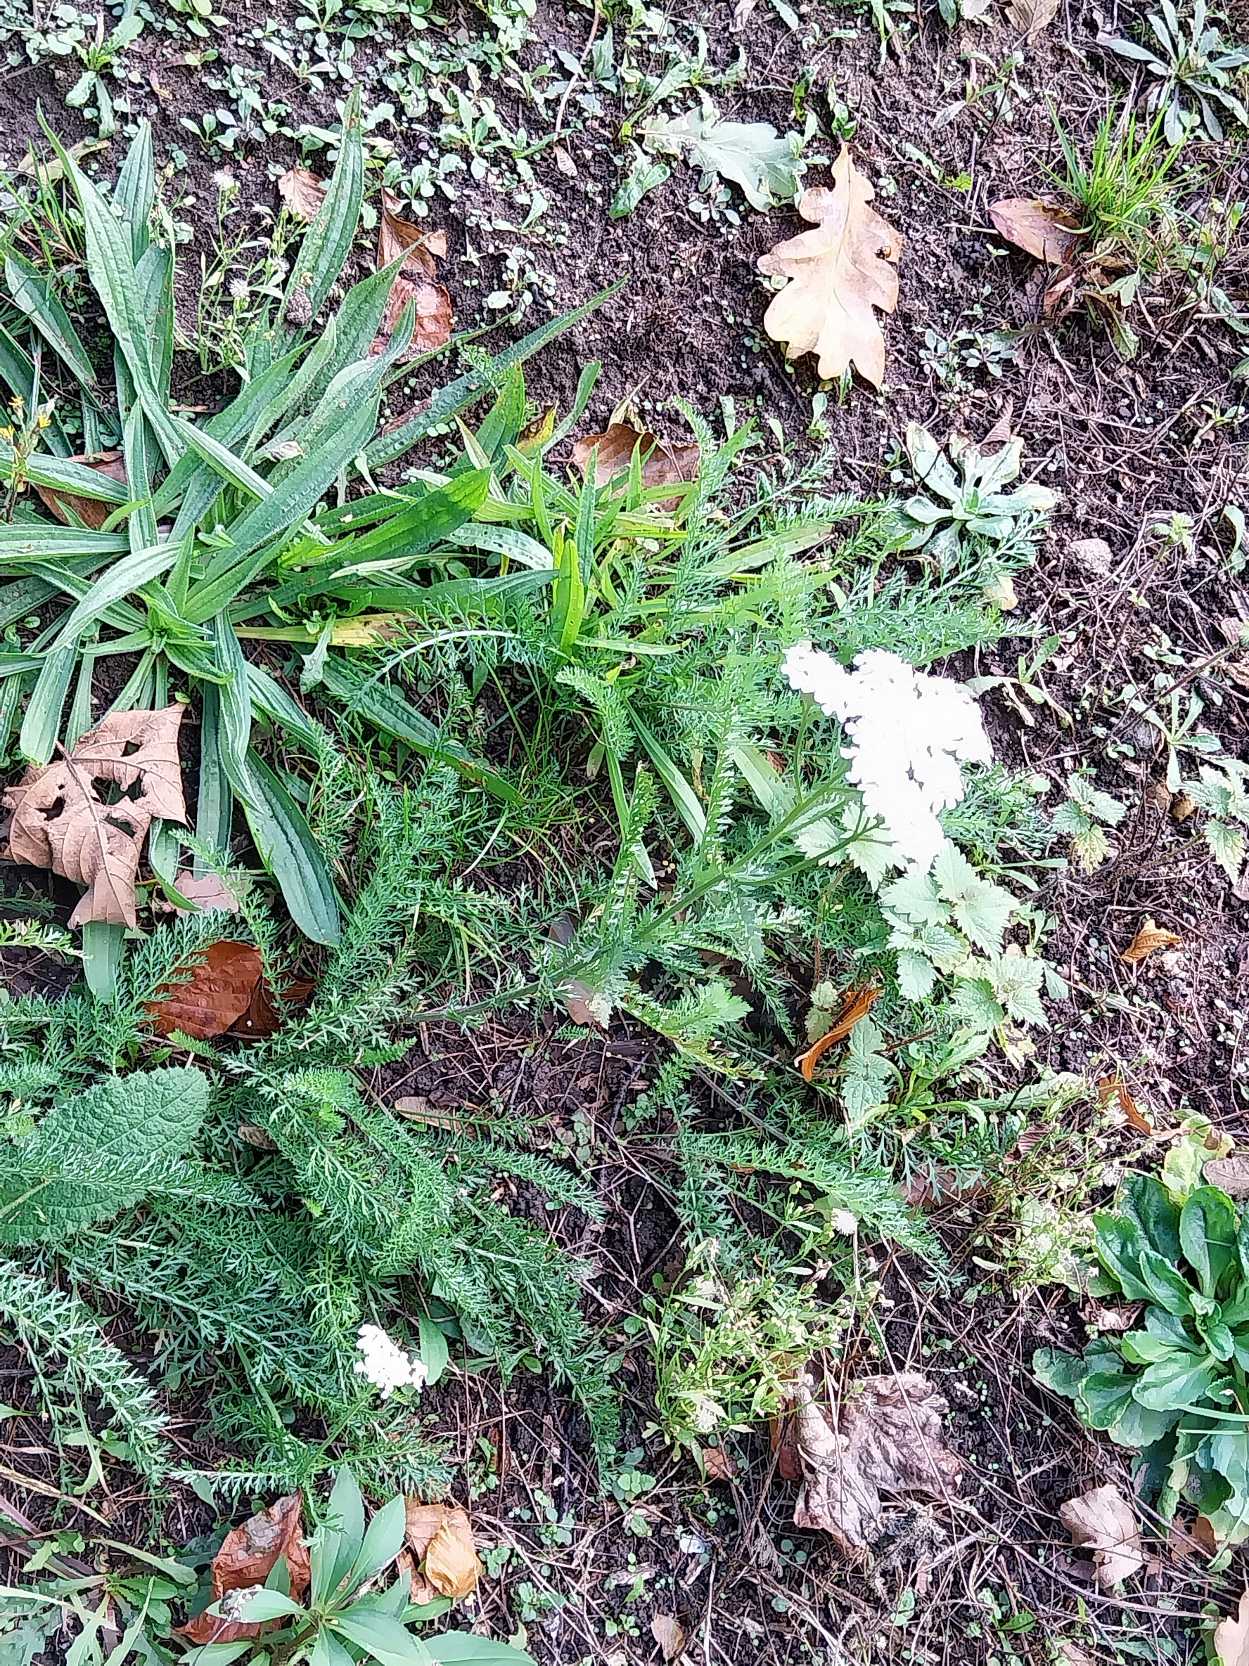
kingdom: Plantae
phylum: Tracheophyta
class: Magnoliopsida
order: Asterales
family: Asteraceae
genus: Achillea
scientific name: Achillea millefolium
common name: Almindelig røllike
